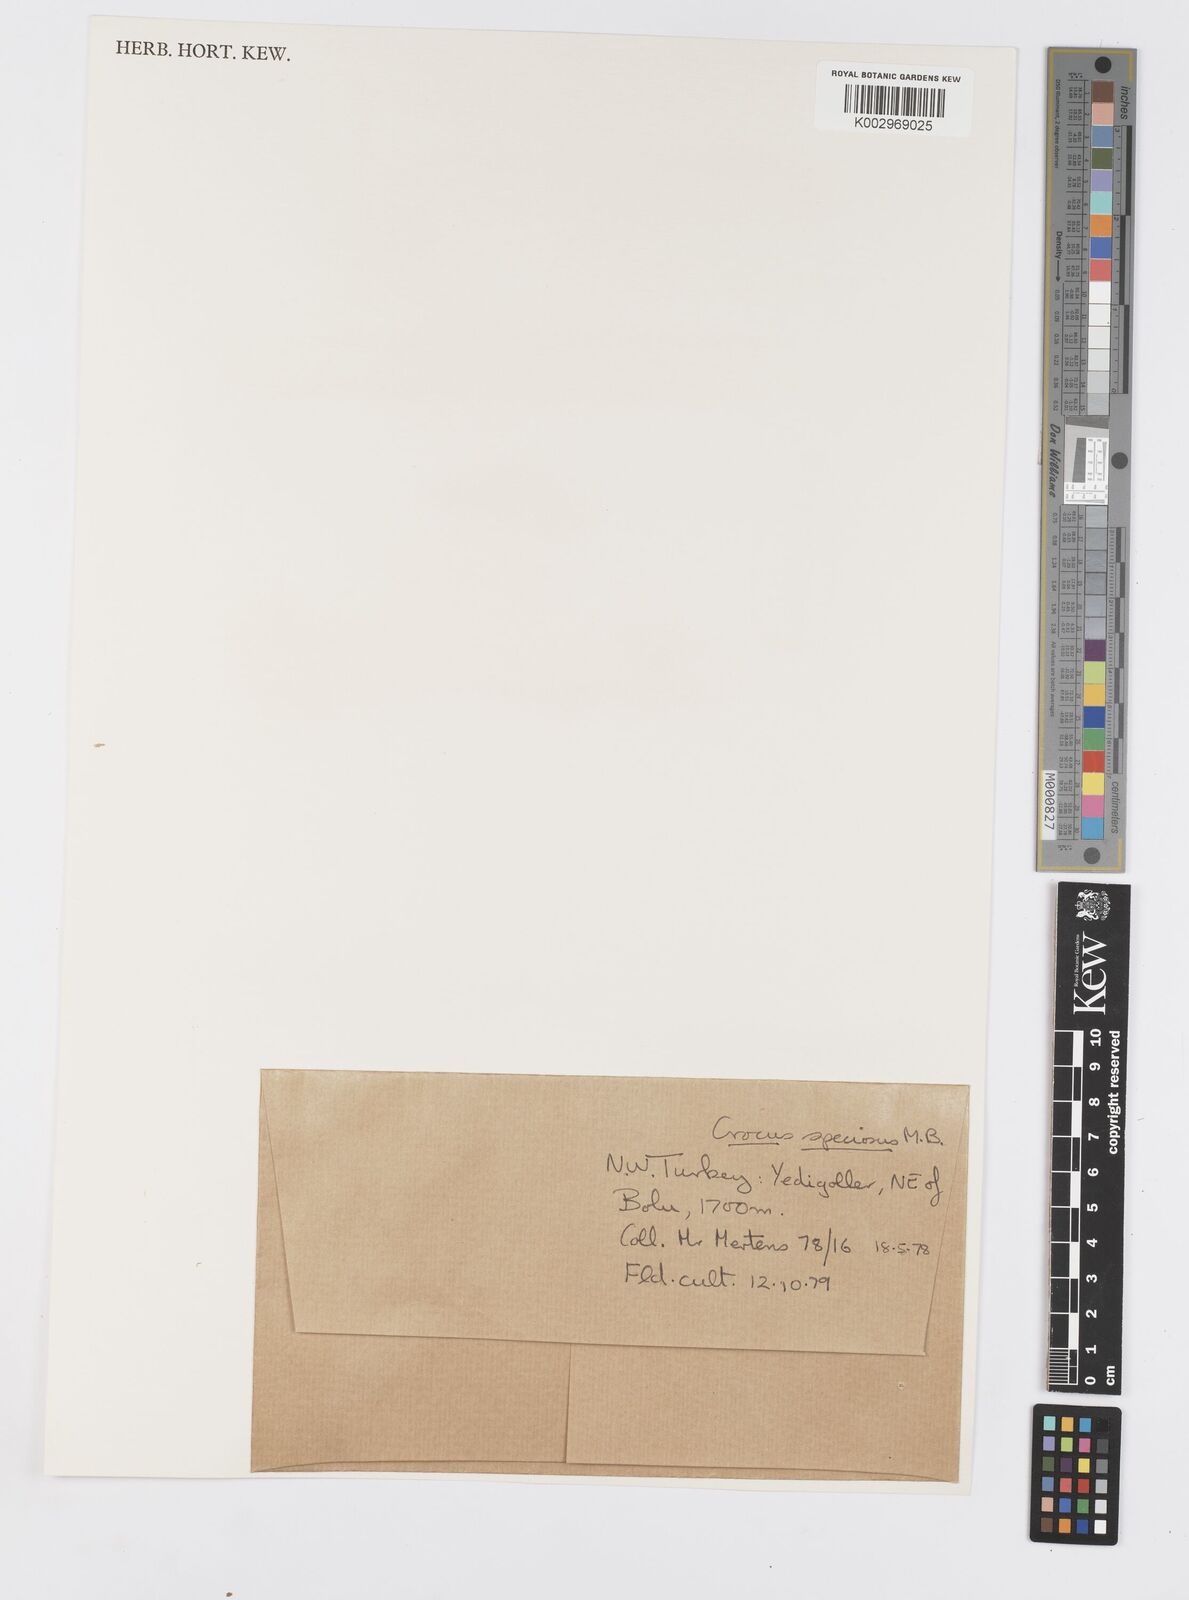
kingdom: Plantae
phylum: Tracheophyta
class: Liliopsida
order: Asparagales
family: Iridaceae
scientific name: Iridaceae
